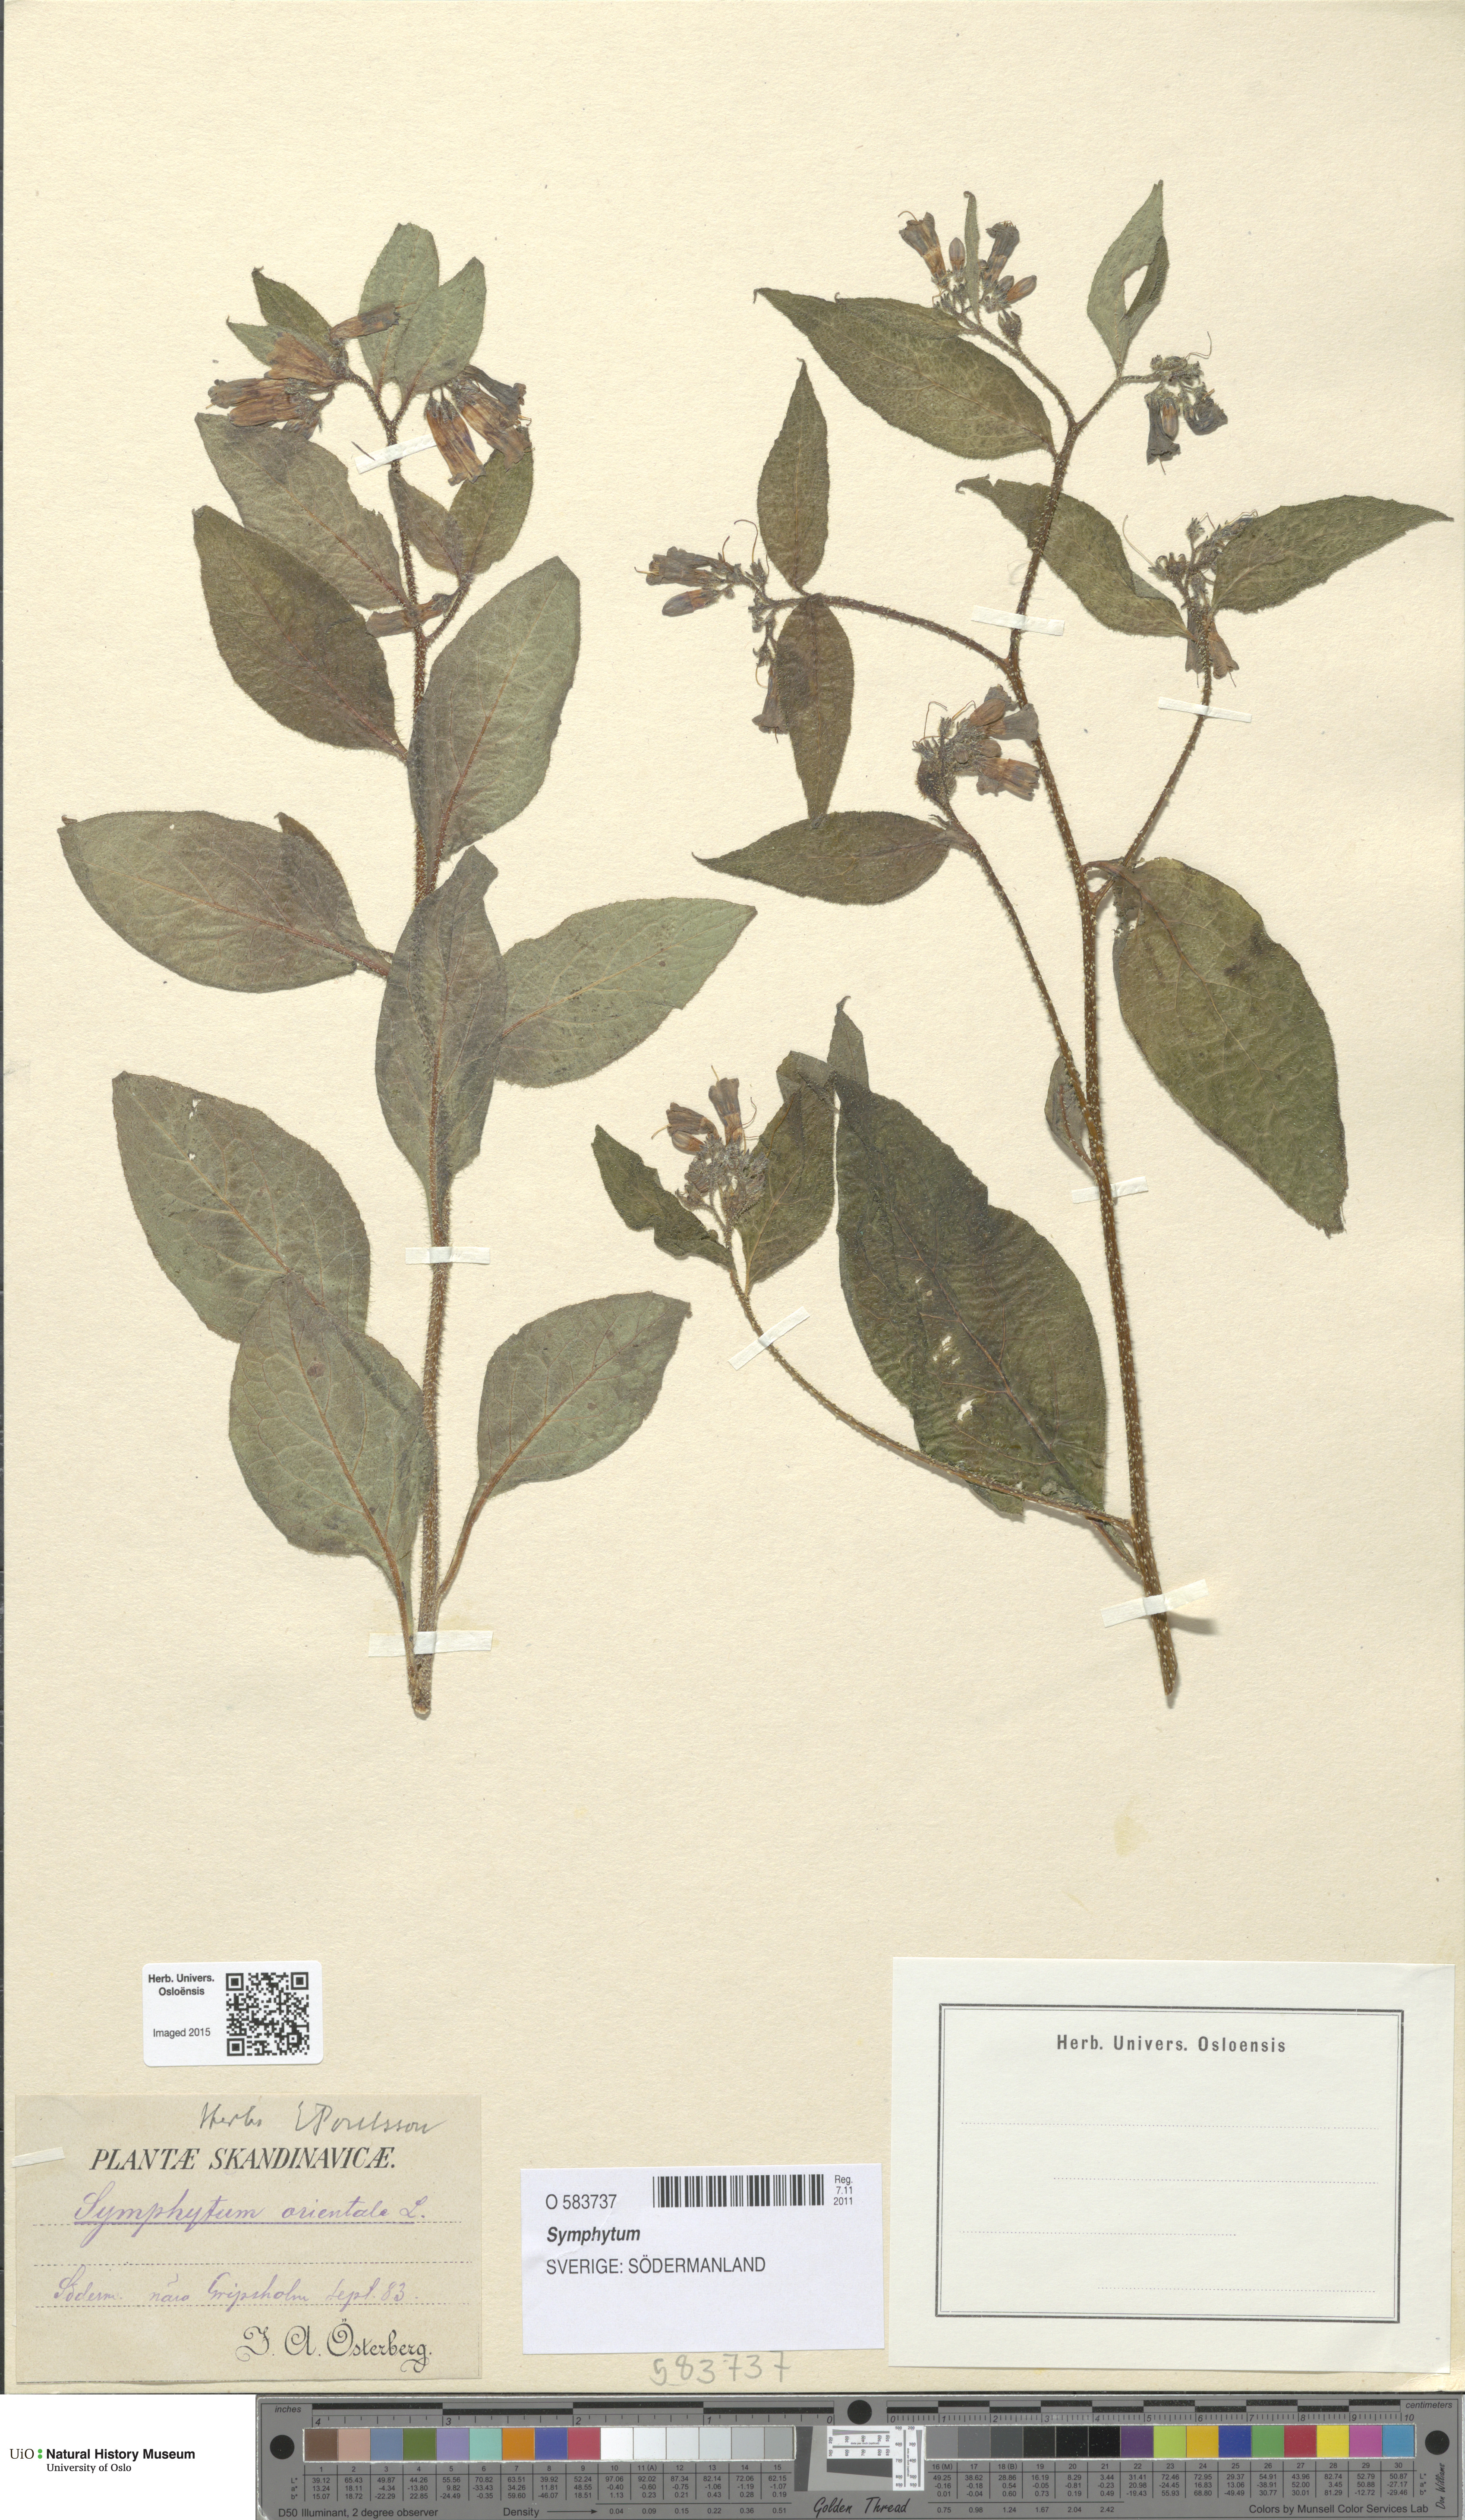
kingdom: Plantae
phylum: Tracheophyta
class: Magnoliopsida
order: Boraginales
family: Boraginaceae
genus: Symphytum
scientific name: Symphytum
